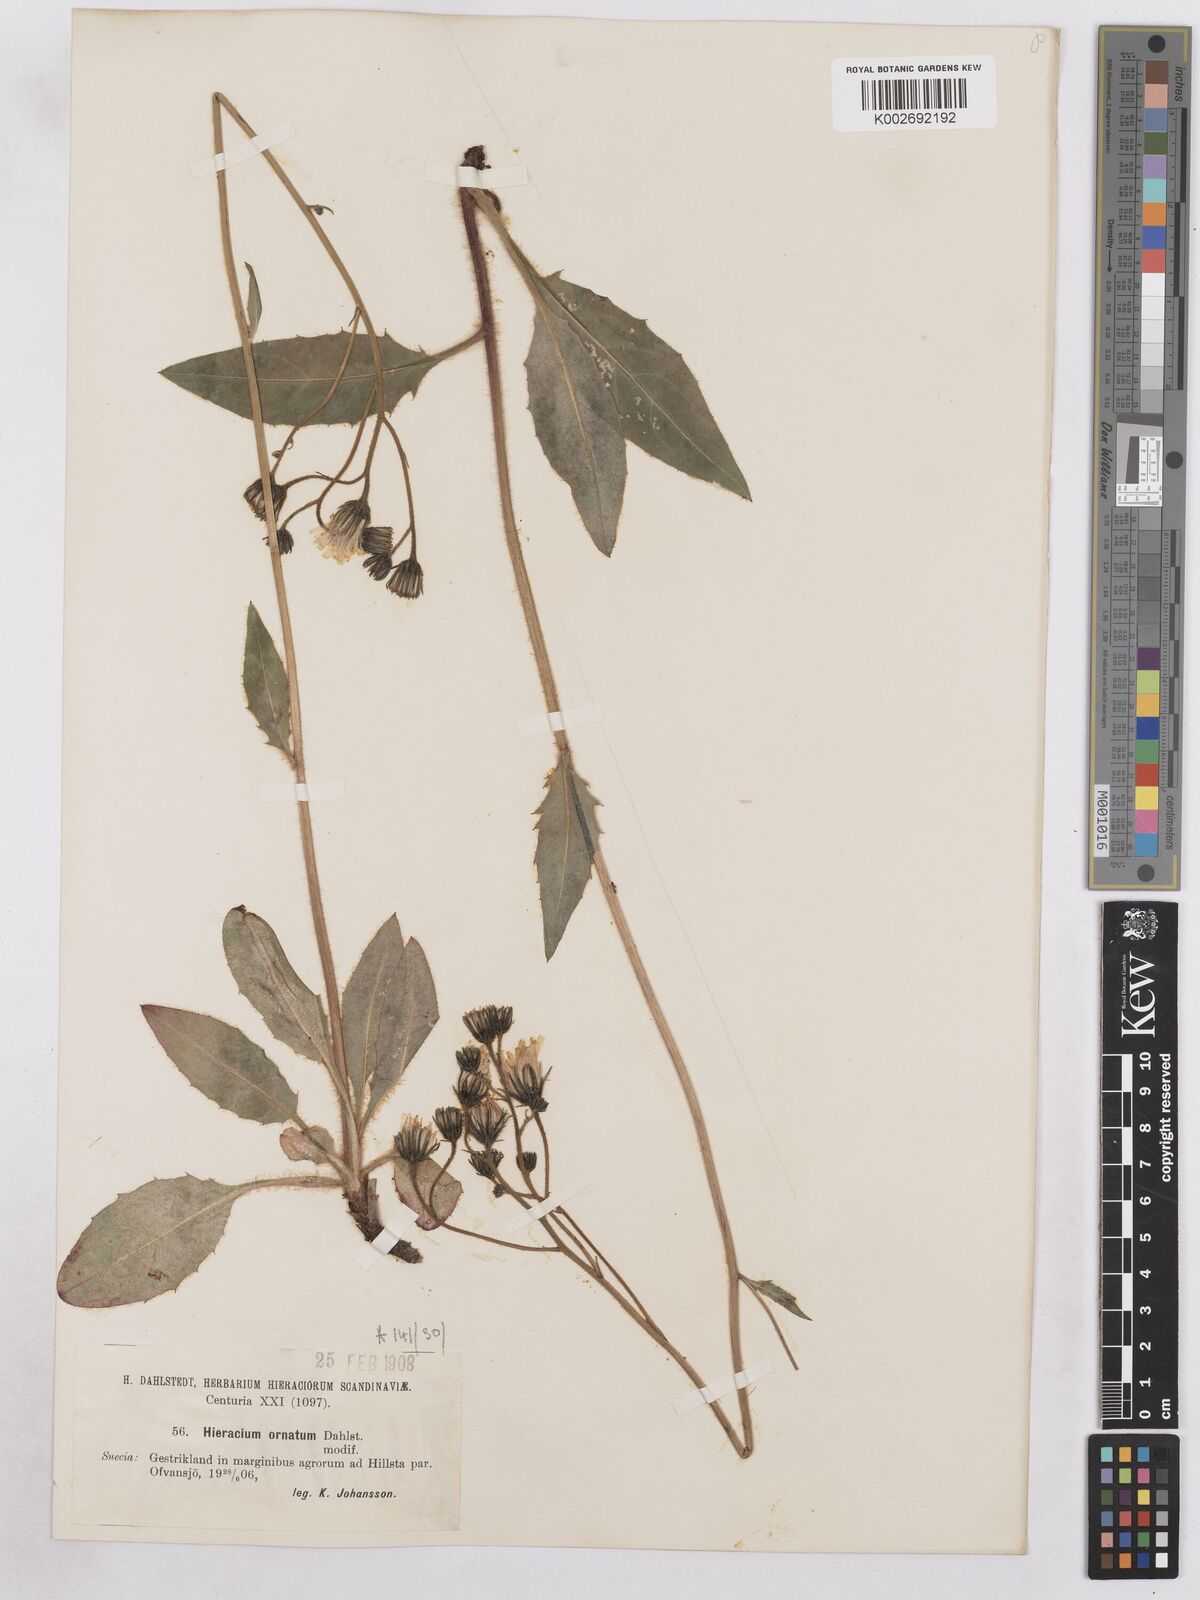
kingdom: Plantae
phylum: Tracheophyta
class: Magnoliopsida
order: Asterales
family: Asteraceae
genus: Hieracium
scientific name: Hieracium diaphanoides
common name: Fine-bracted hawkweed
